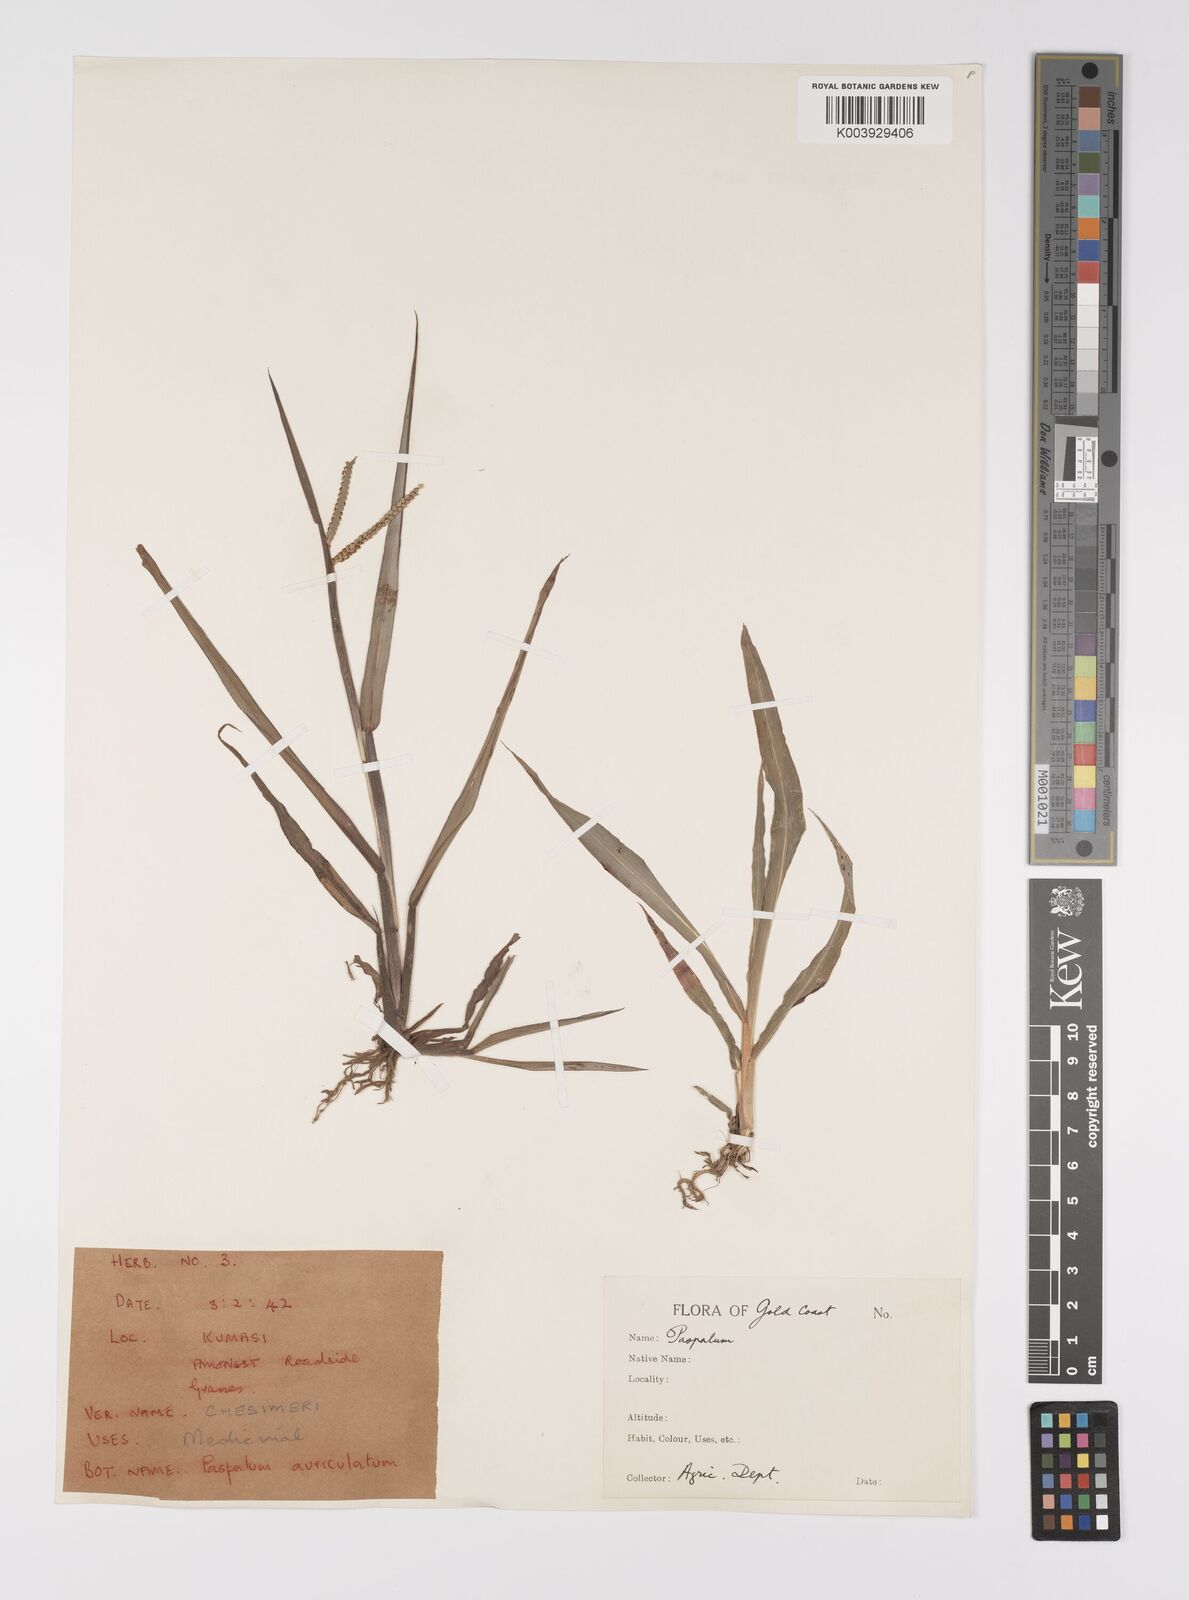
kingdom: Plantae
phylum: Tracheophyta
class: Liliopsida
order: Poales
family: Poaceae
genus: Paspalum
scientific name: Paspalum scrobiculatum
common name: Kodo millet
